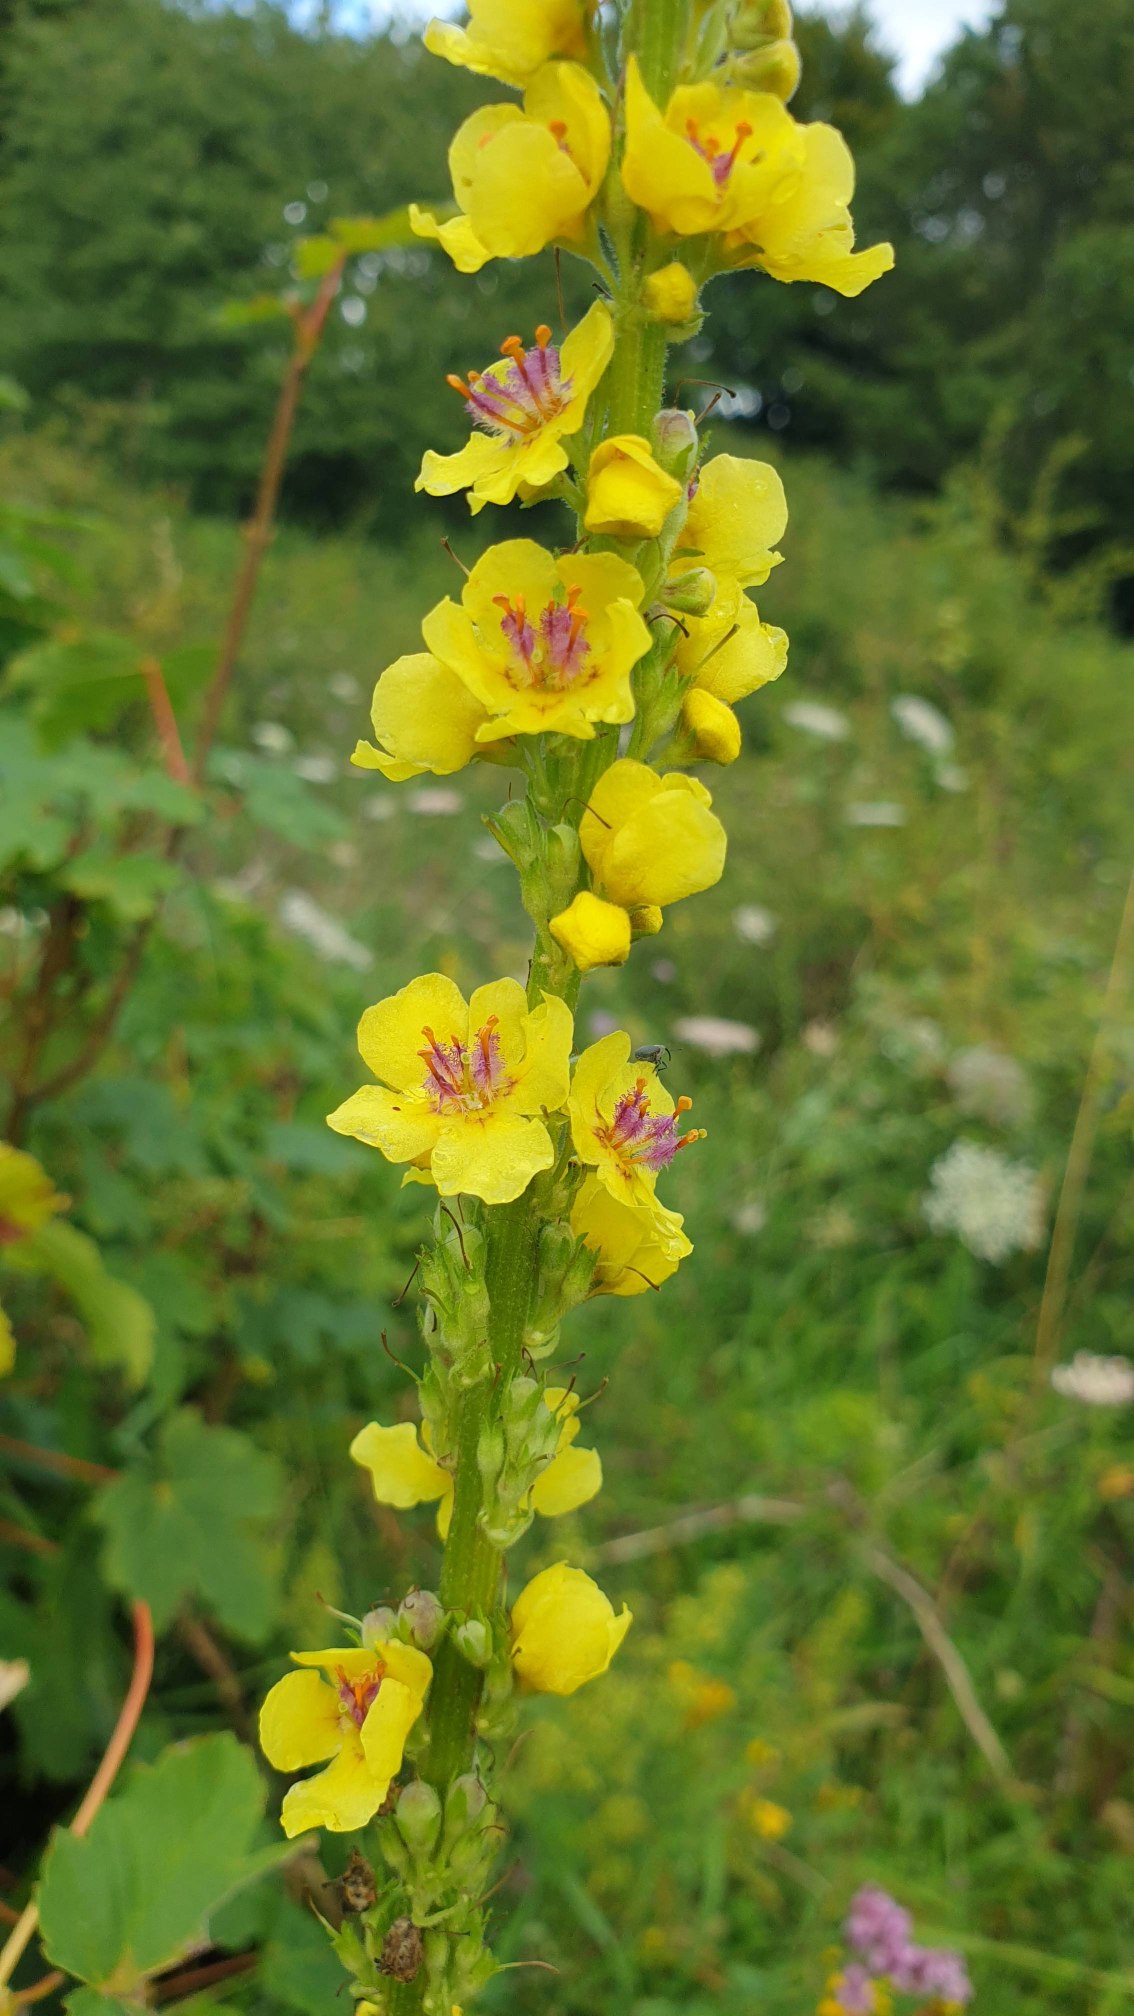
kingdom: Plantae
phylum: Tracheophyta
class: Magnoliopsida
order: Lamiales
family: Scrophulariaceae
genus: Verbascum
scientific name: Verbascum nigrum
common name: Mørk kongelys
